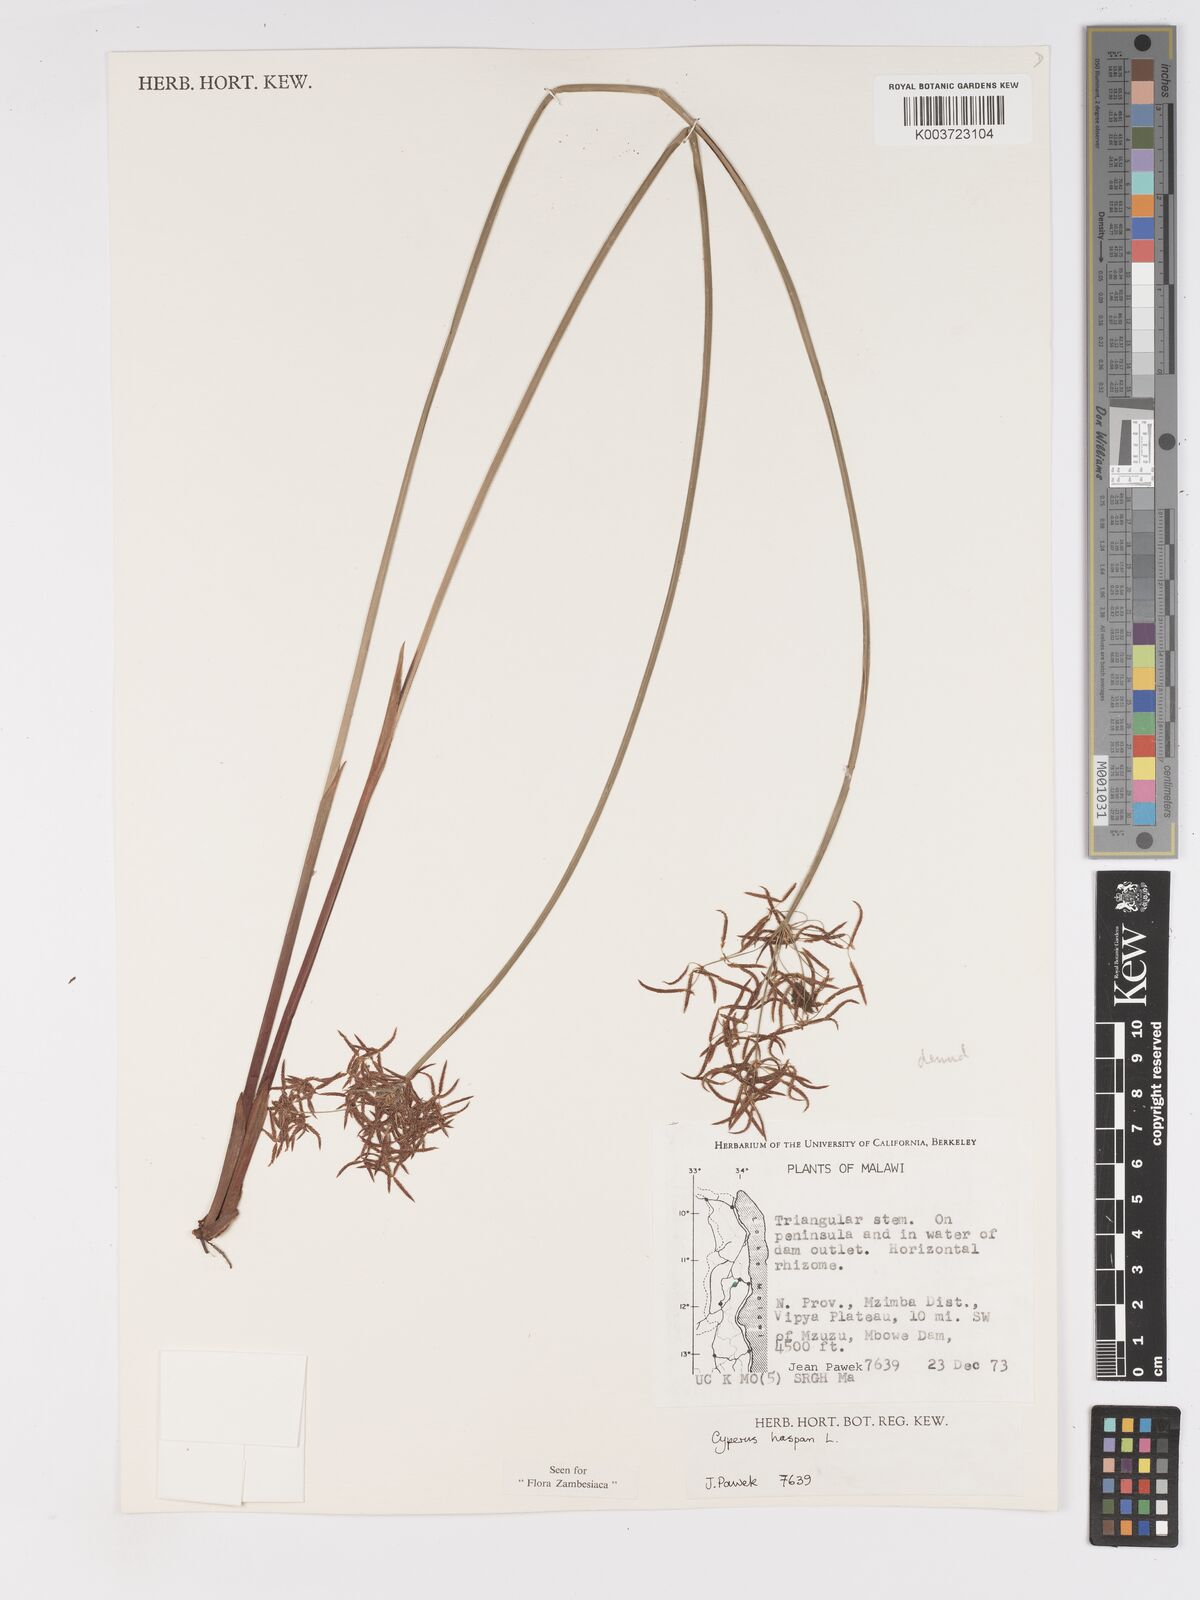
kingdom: Plantae
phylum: Tracheophyta
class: Liliopsida
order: Poales
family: Cyperaceae
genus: Cyperus
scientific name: Cyperus haspan
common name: Haspan flatsedge
